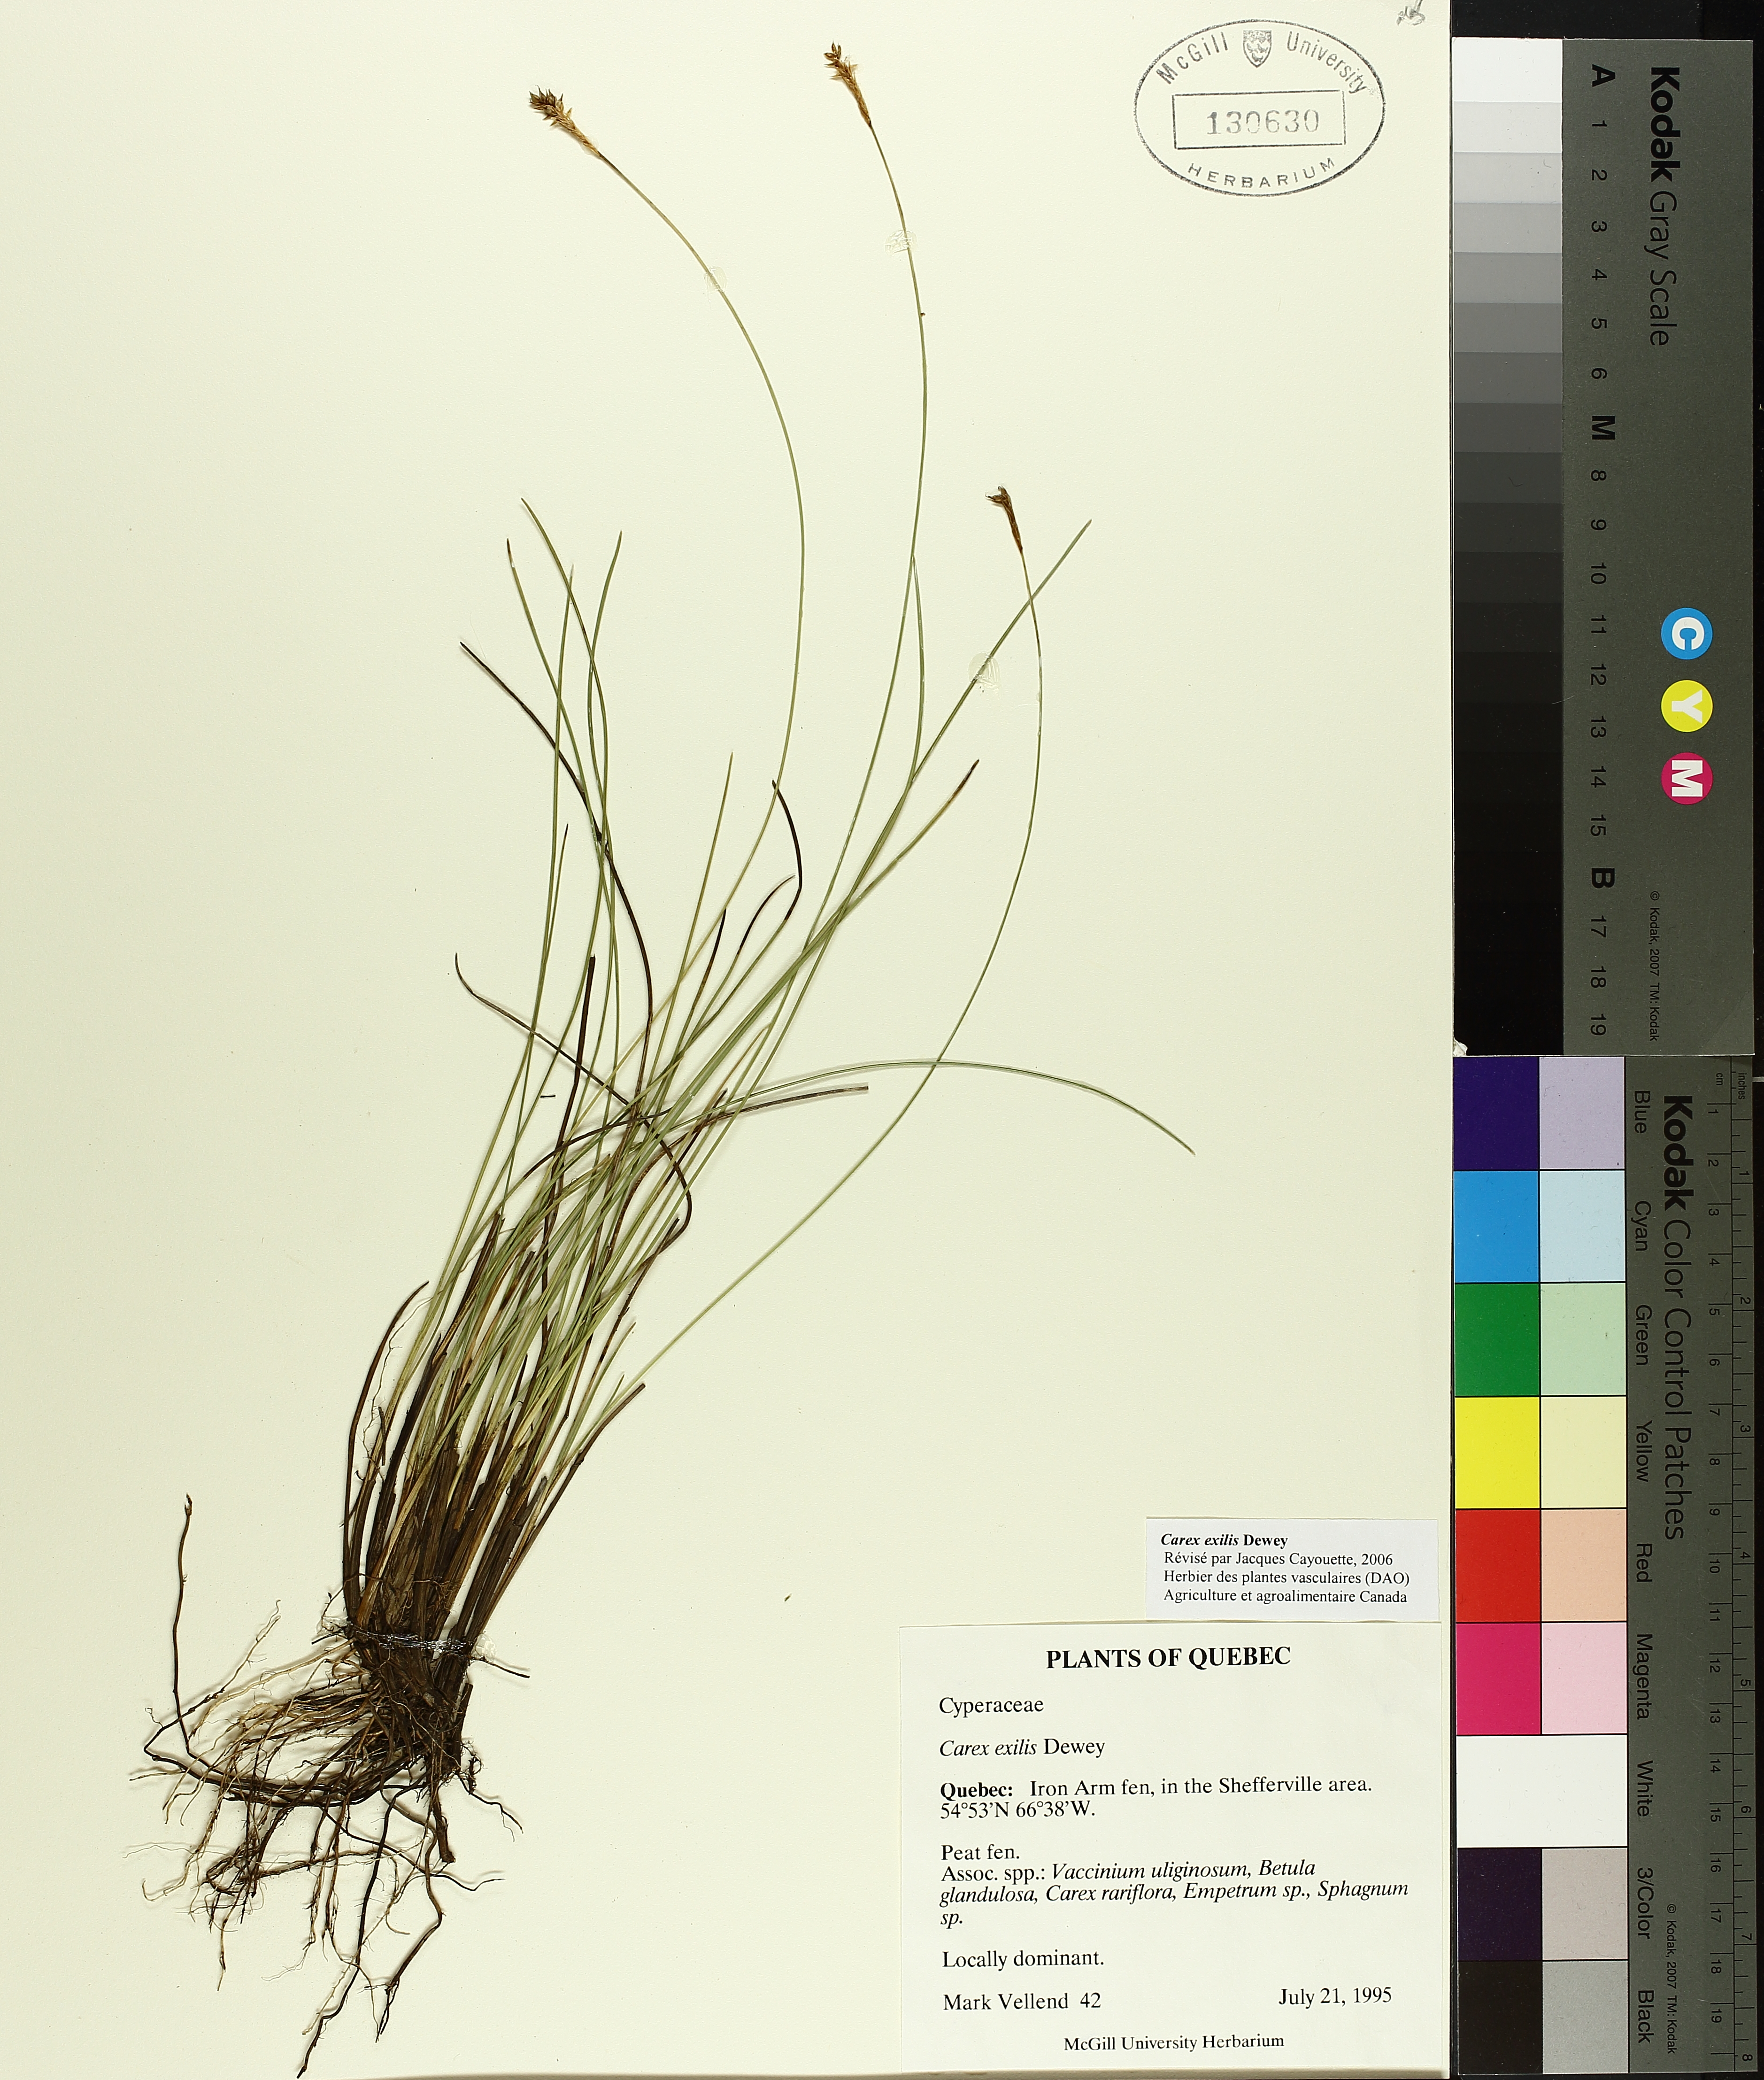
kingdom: Plantae
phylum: Tracheophyta
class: Liliopsida
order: Poales
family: Cyperaceae
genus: Carex
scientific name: Carex exilis
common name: Coastal sedge
